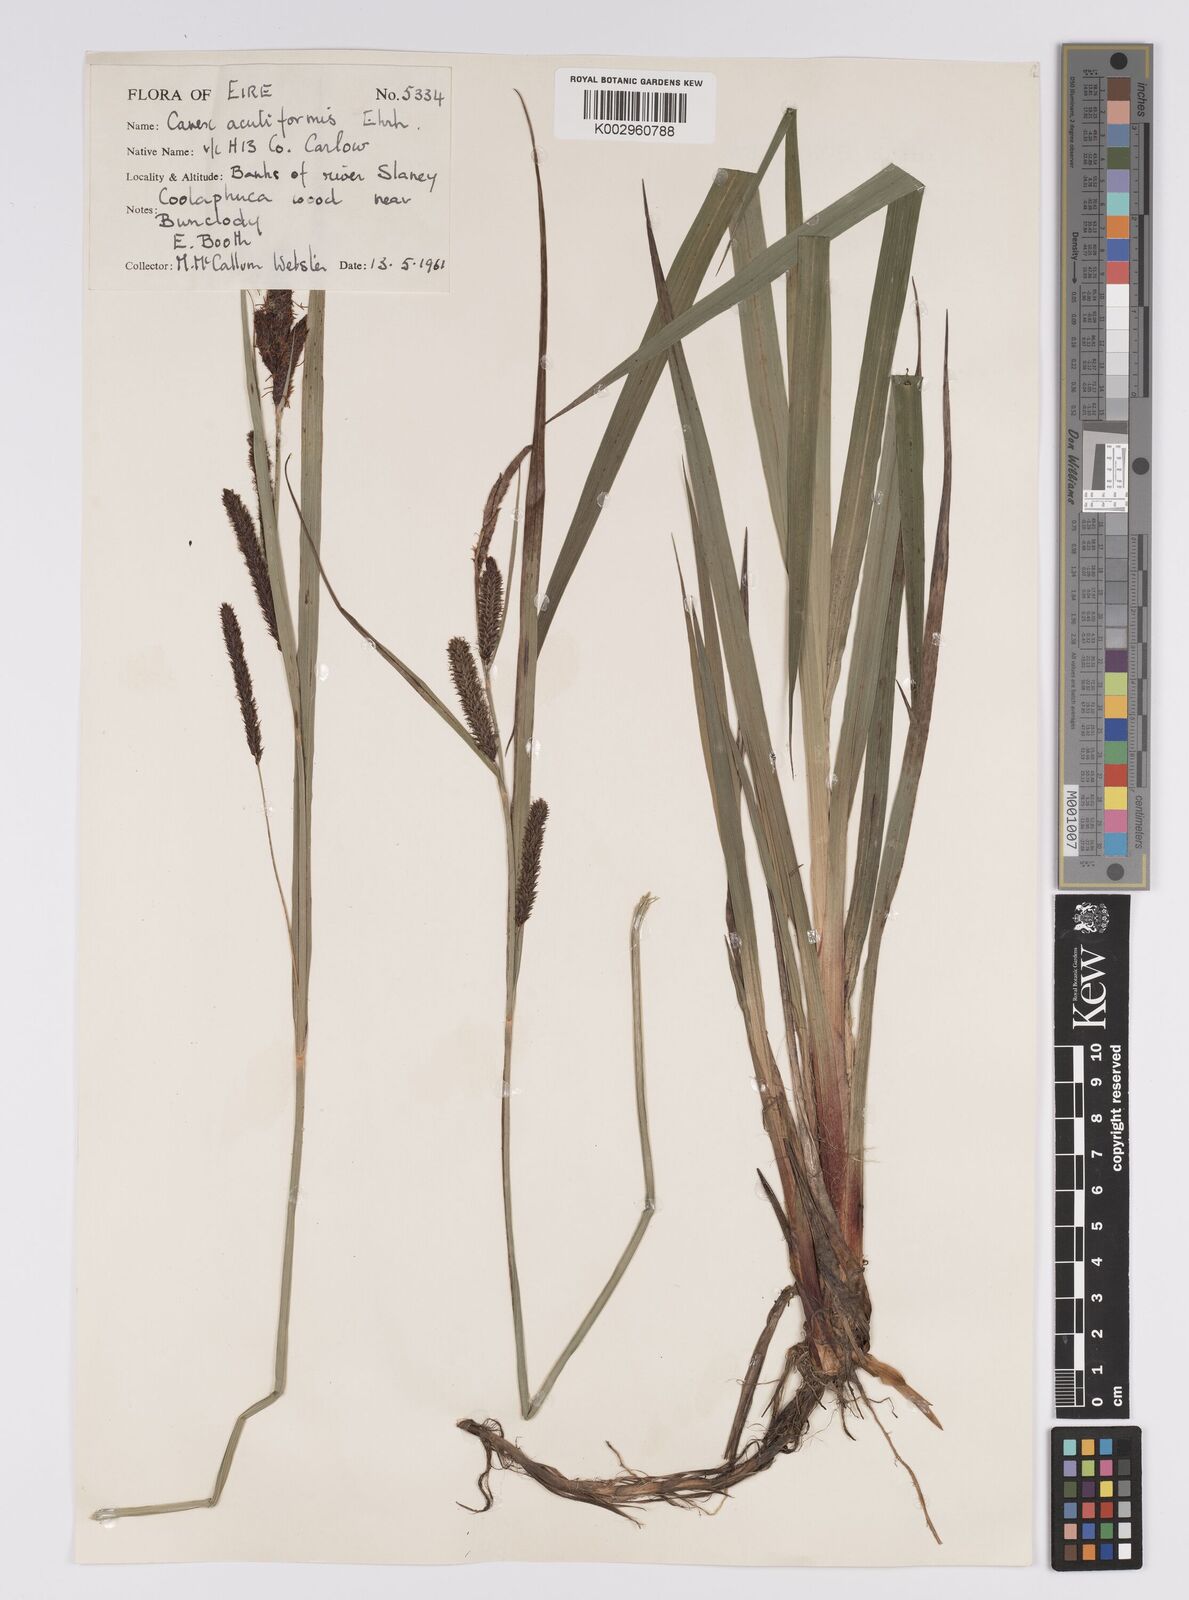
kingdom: Plantae
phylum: Tracheophyta
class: Liliopsida
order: Poales
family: Cyperaceae
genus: Carex
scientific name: Carex acutiformis
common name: Lesser pond-sedge
